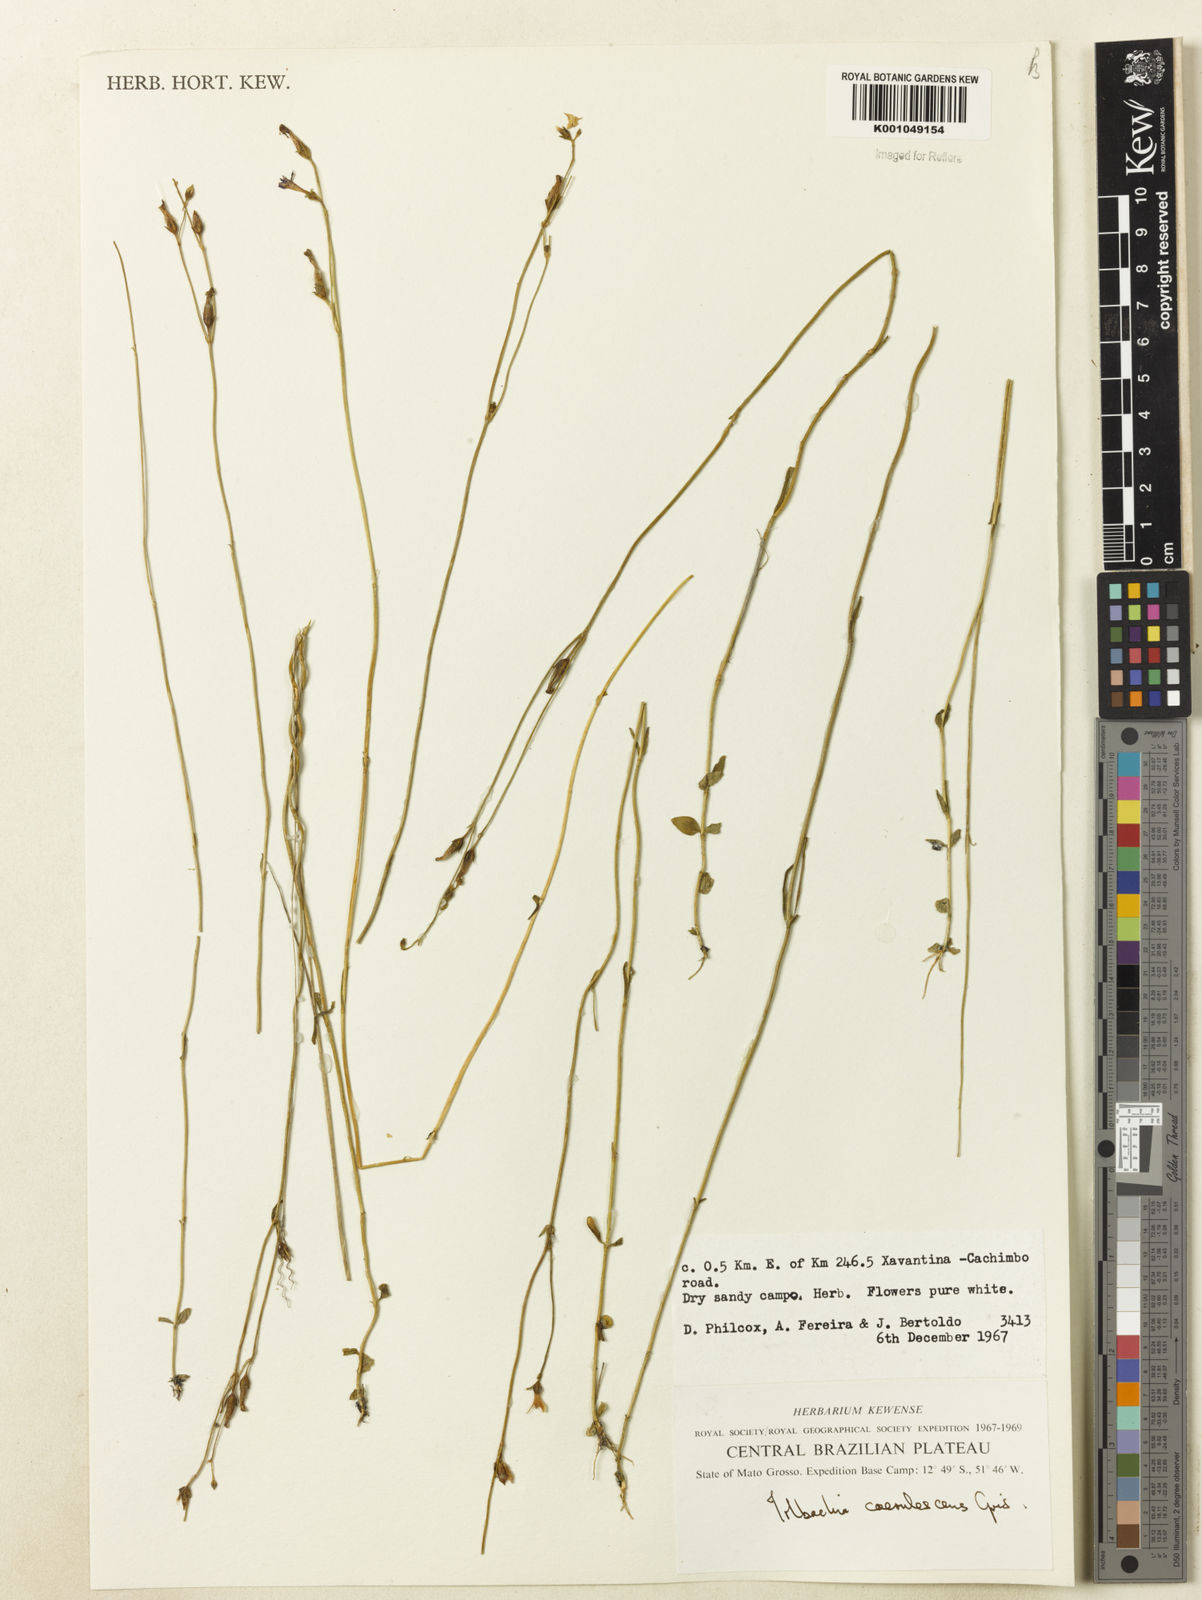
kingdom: Plantae
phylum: Tracheophyta
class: Magnoliopsida
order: Gentianales
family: Gentianaceae
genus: Tetrapollinia
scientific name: Tetrapollinia caerulescens
